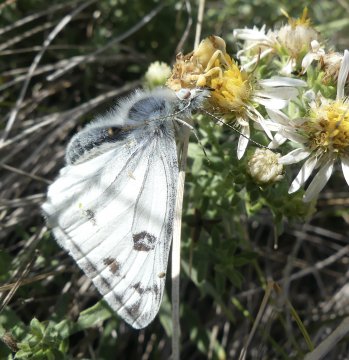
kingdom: Animalia
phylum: Arthropoda
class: Insecta
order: Lepidoptera
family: Pieridae
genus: Pontia
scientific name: Pontia occidentalis
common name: Western White
